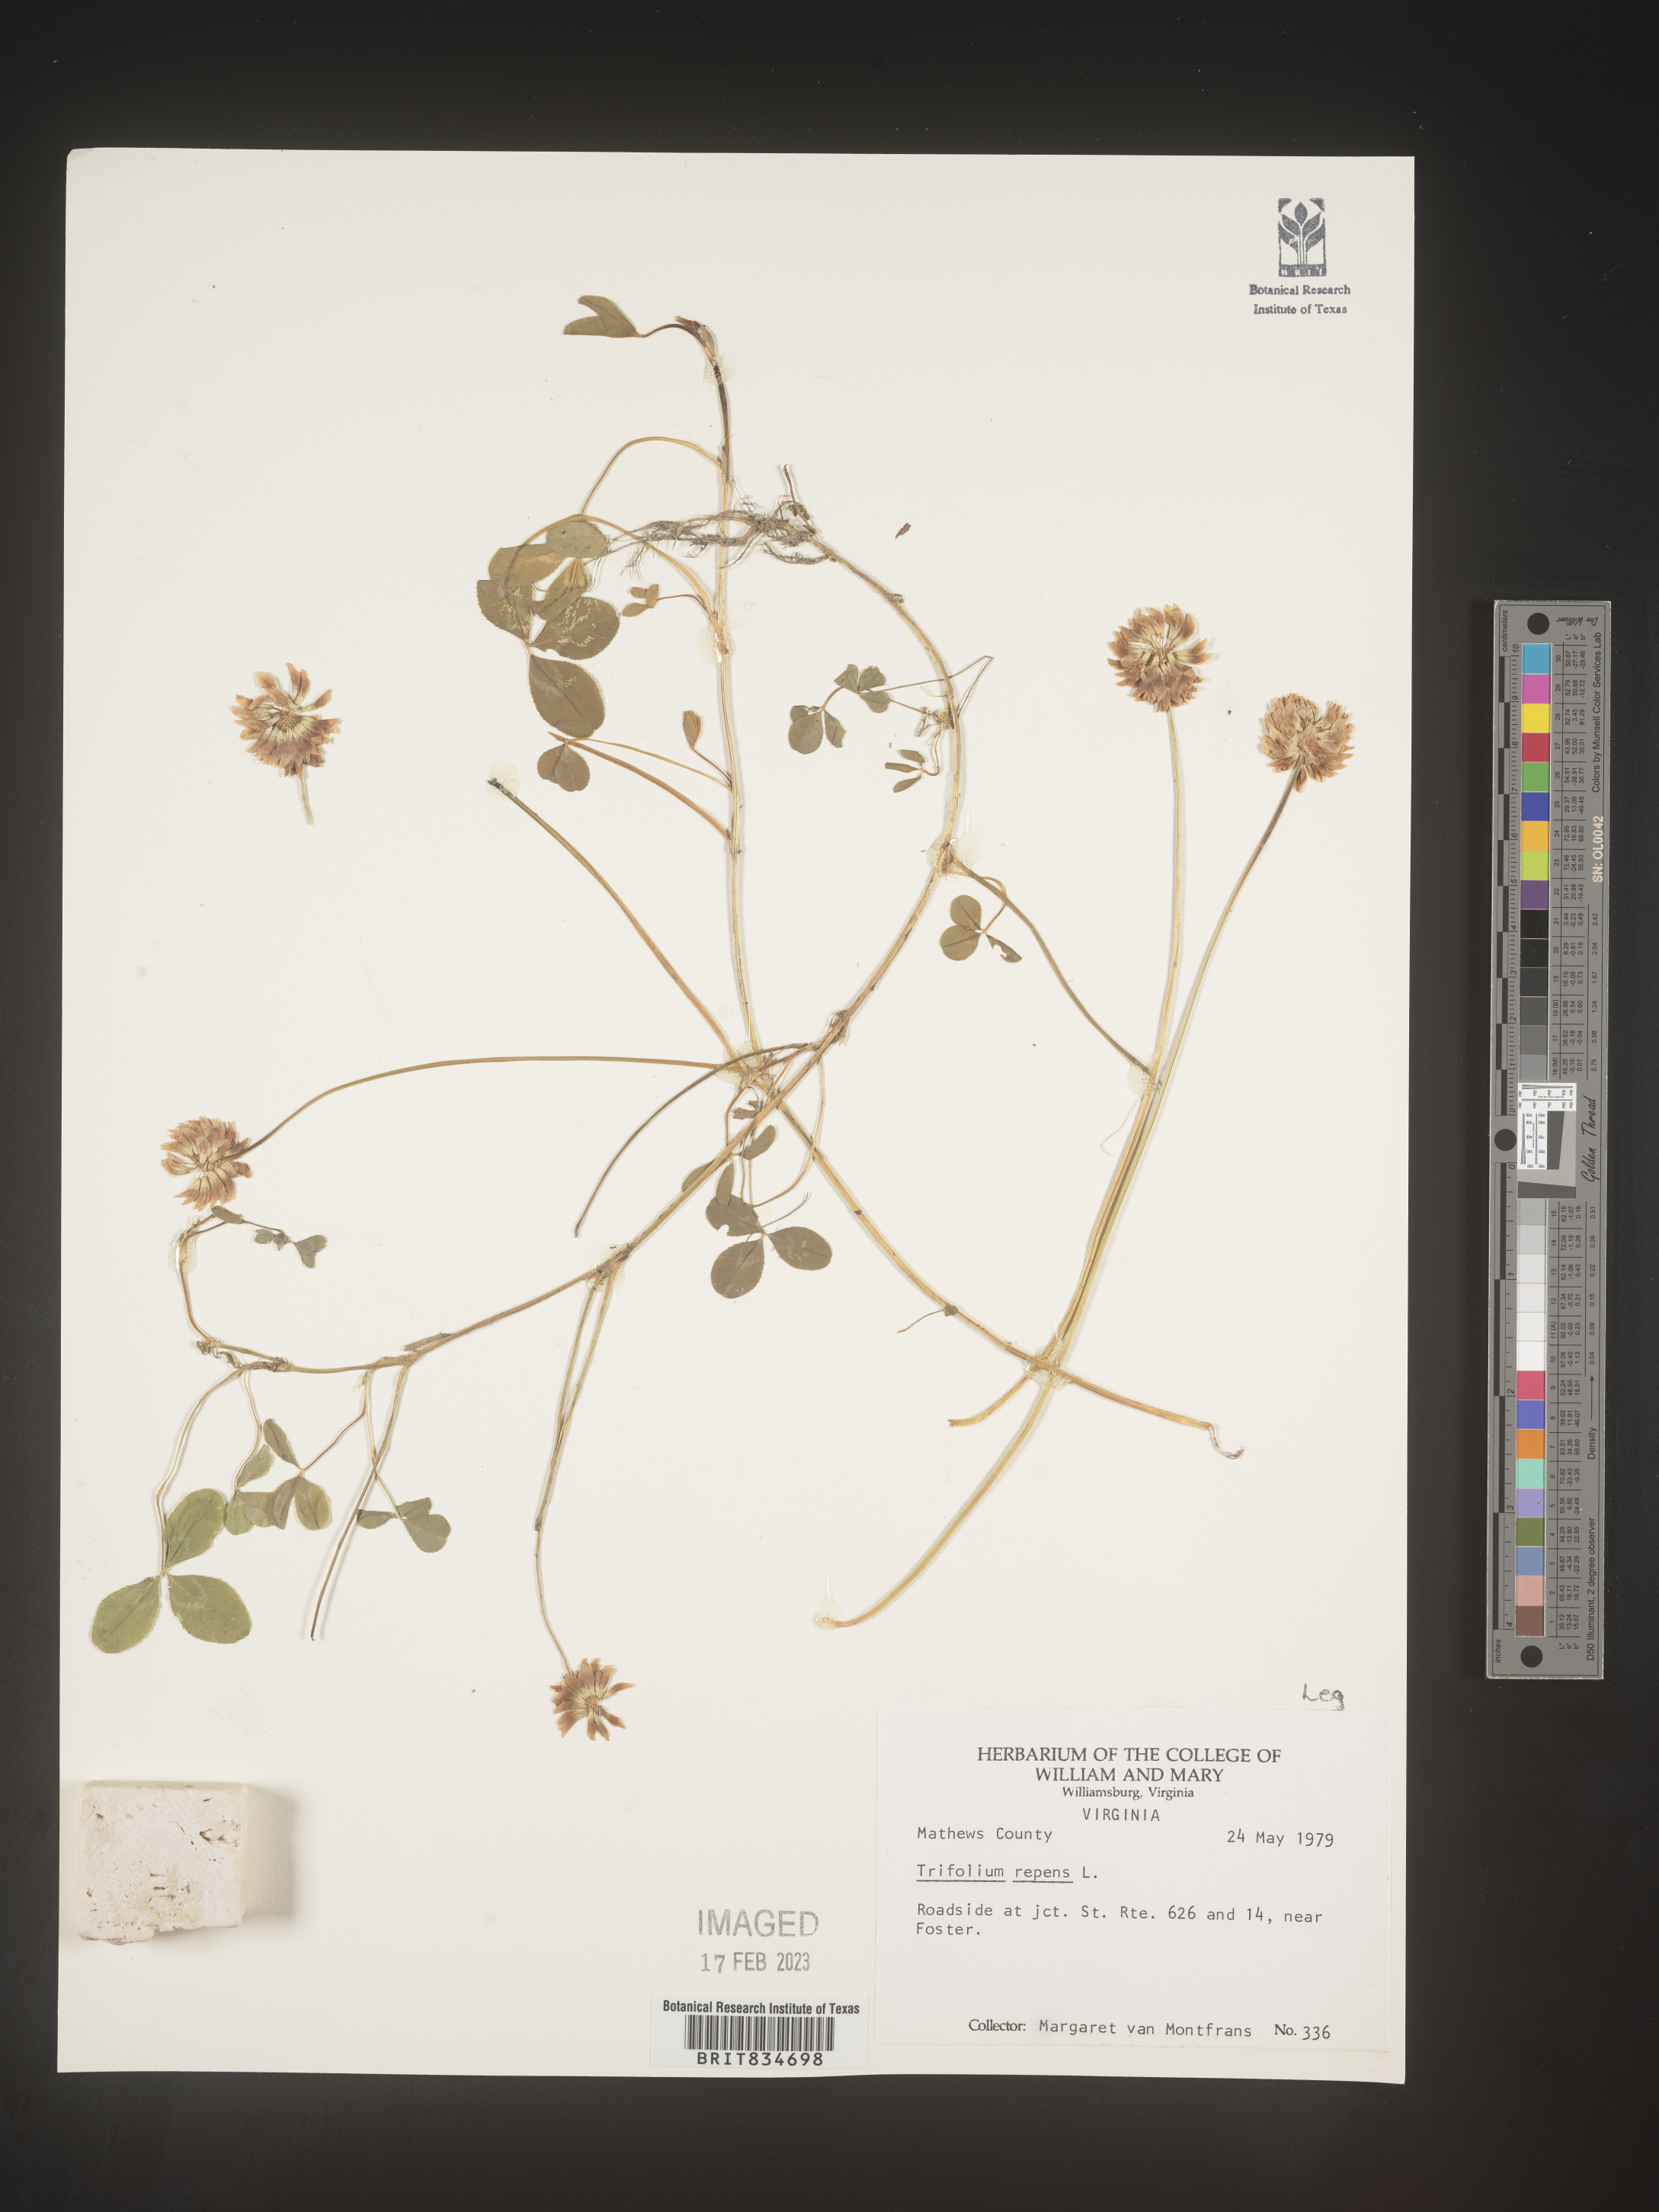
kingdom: Plantae
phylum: Tracheophyta
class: Magnoliopsida
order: Fabales
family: Fabaceae
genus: Trifolium
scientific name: Trifolium repens
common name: White clover
